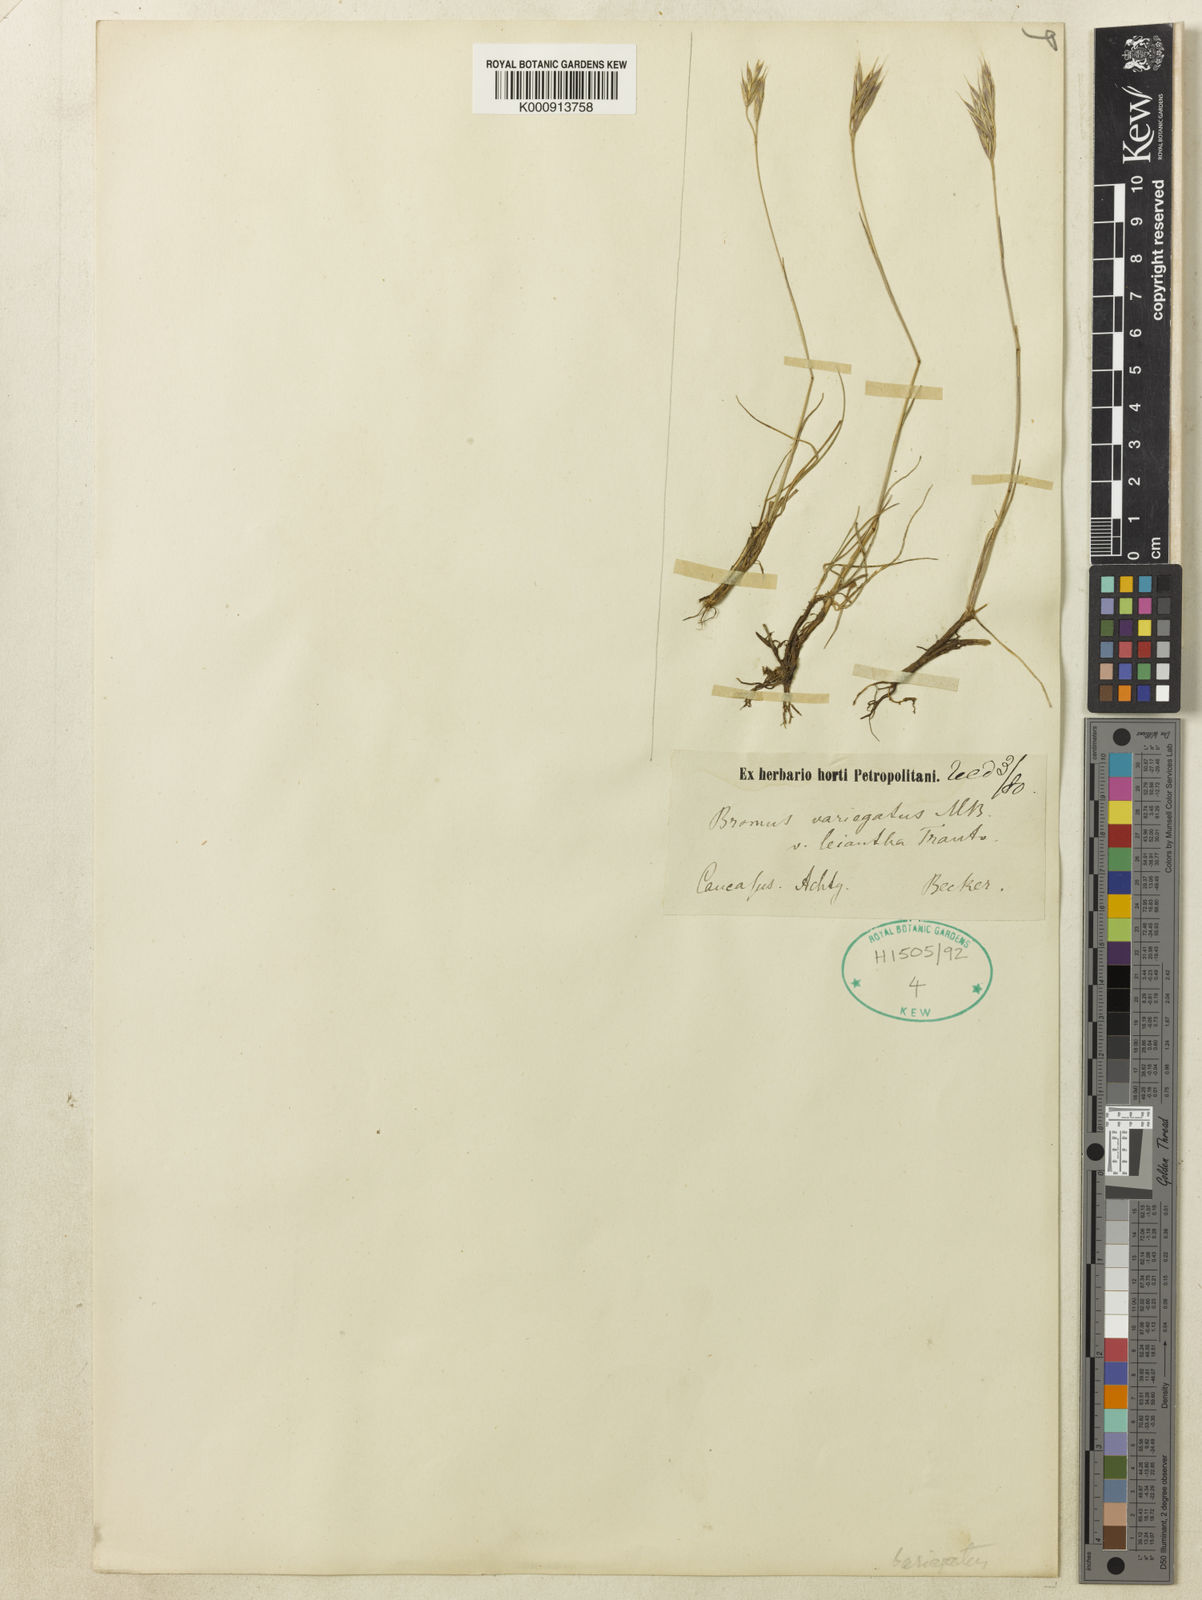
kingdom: Plantae
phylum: Tracheophyta
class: Liliopsida
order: Poales
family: Poaceae
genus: Bromus
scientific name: Bromus variegatus
